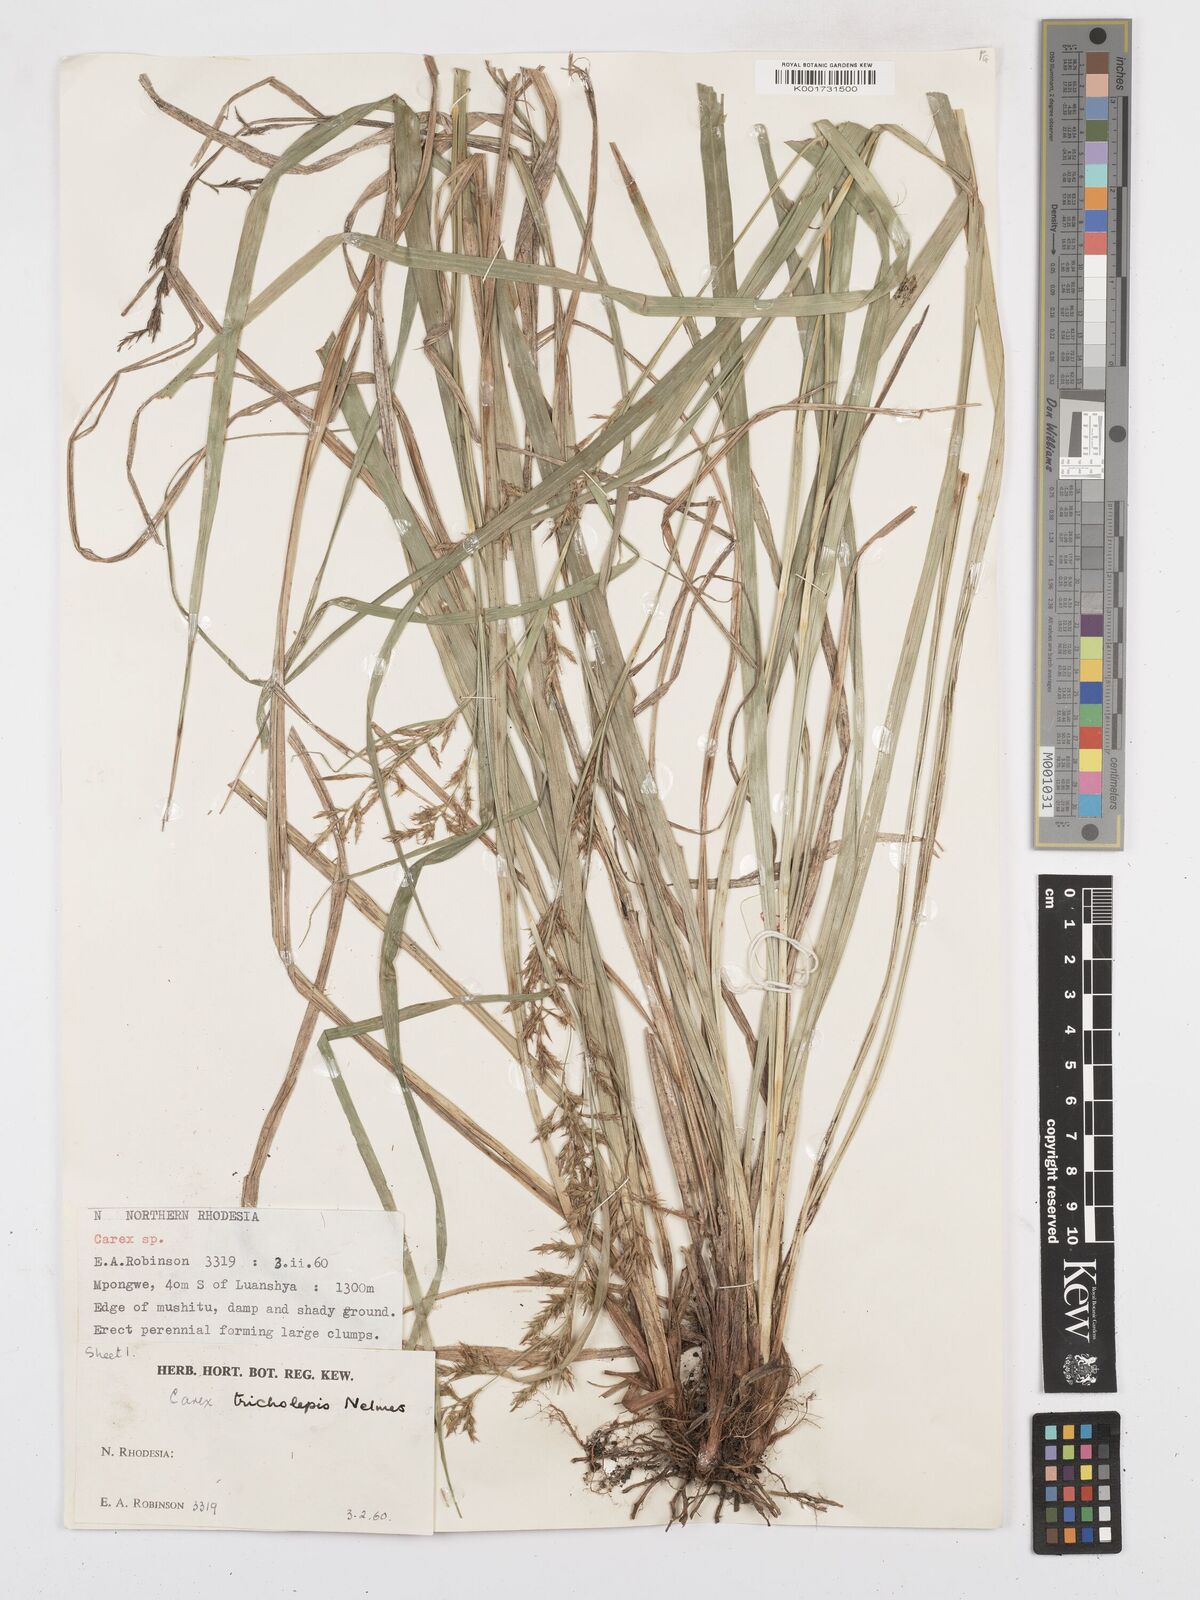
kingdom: Plantae
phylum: Tracheophyta
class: Liliopsida
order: Poales
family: Cyperaceae
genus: Carex
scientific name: Carex tricholepis
